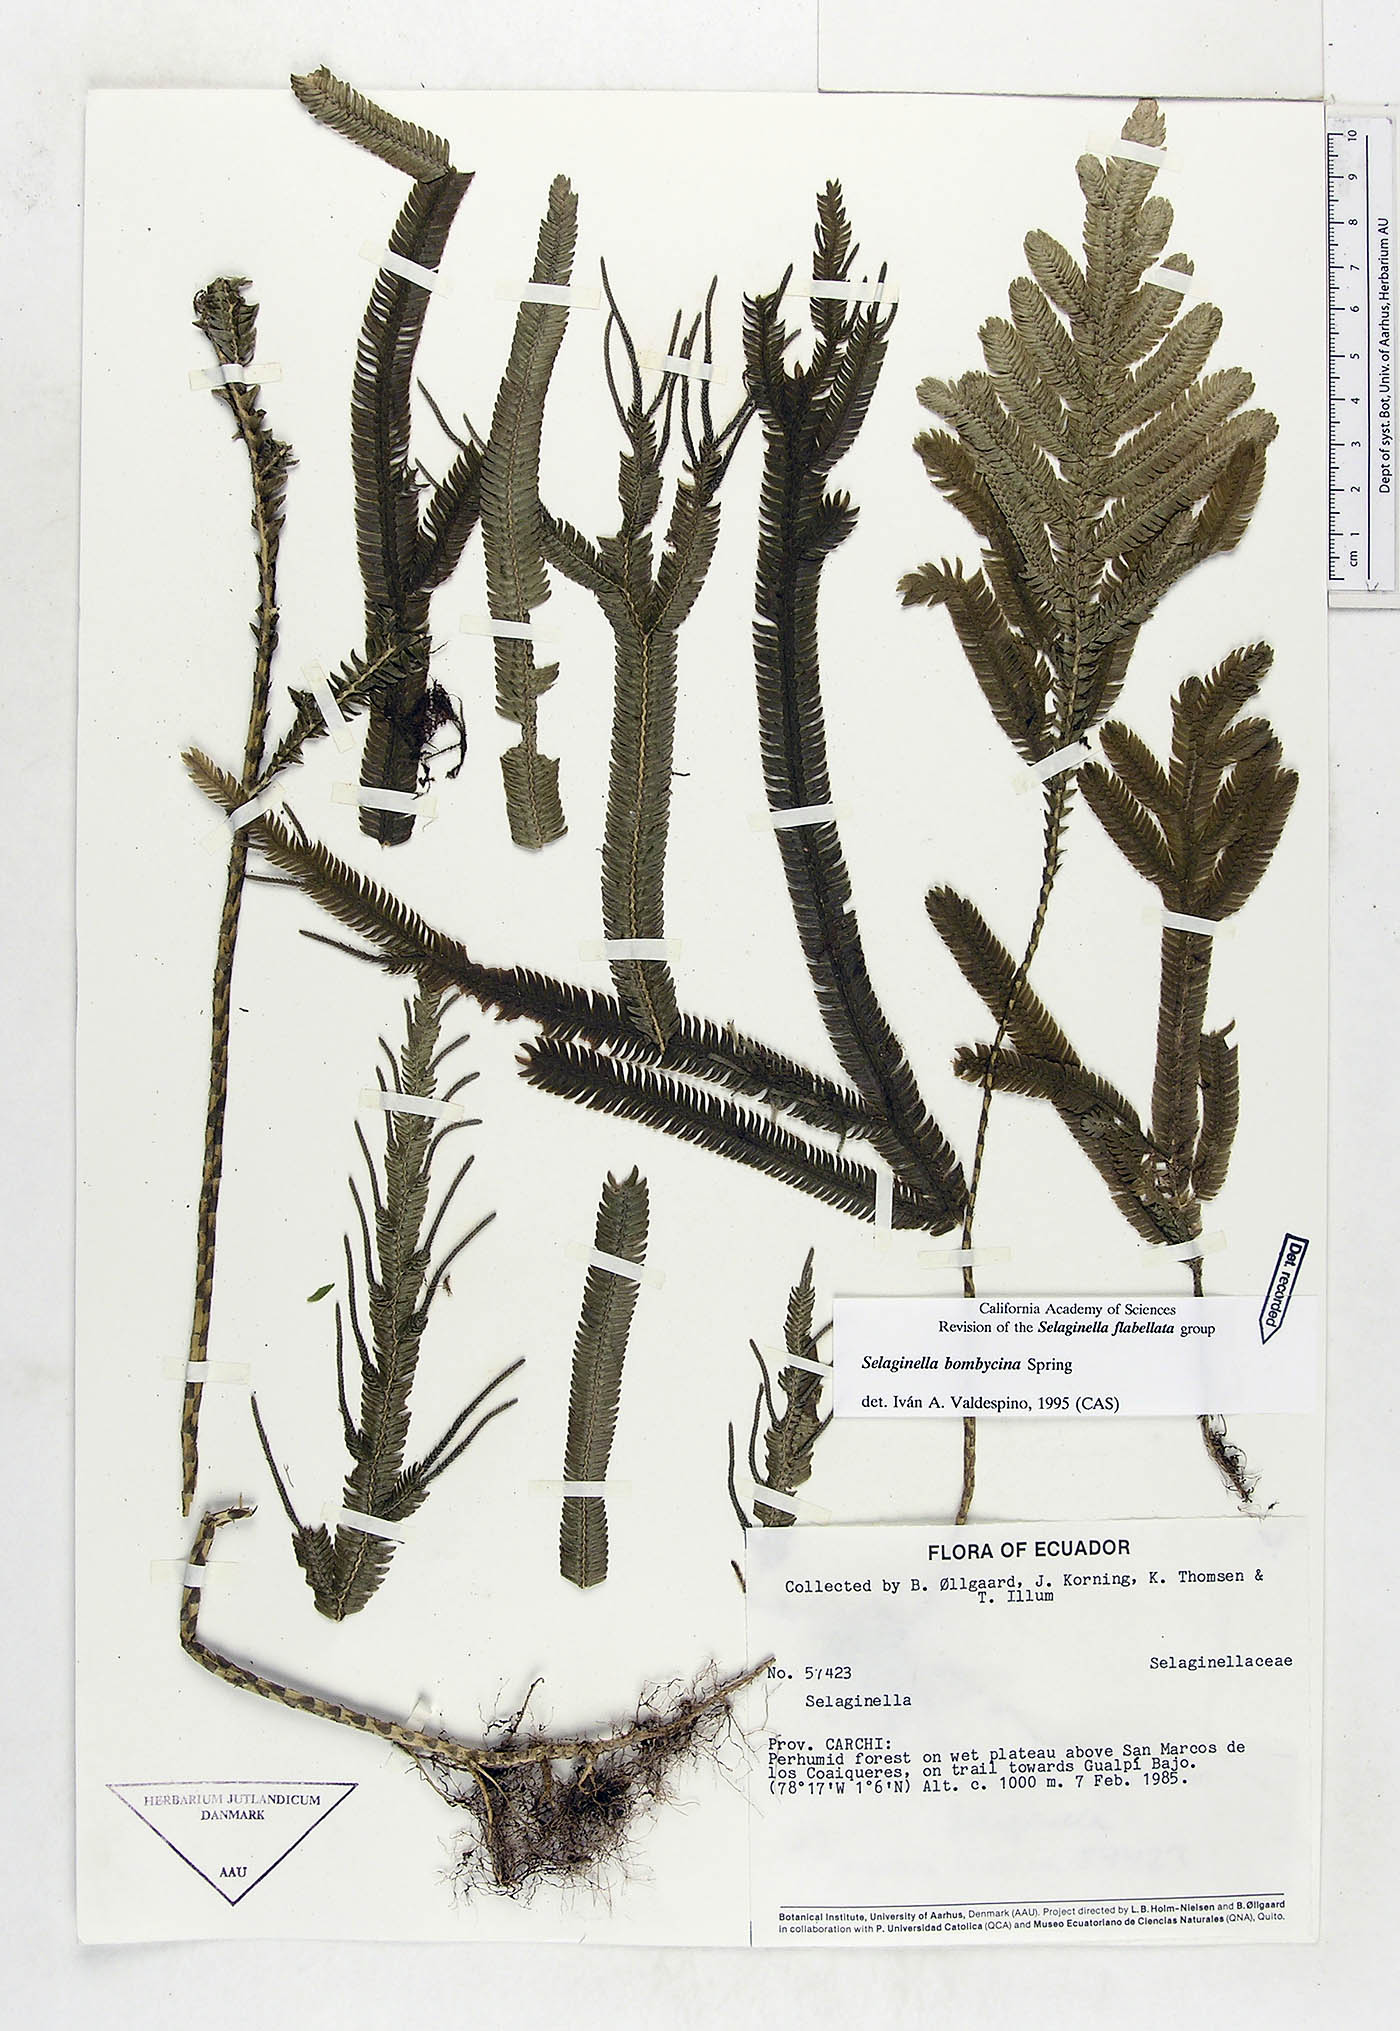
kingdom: Plantae
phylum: Tracheophyta
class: Lycopodiopsida
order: Selaginellales
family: Selaginellaceae
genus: Selaginella
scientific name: Selaginella bombycina
